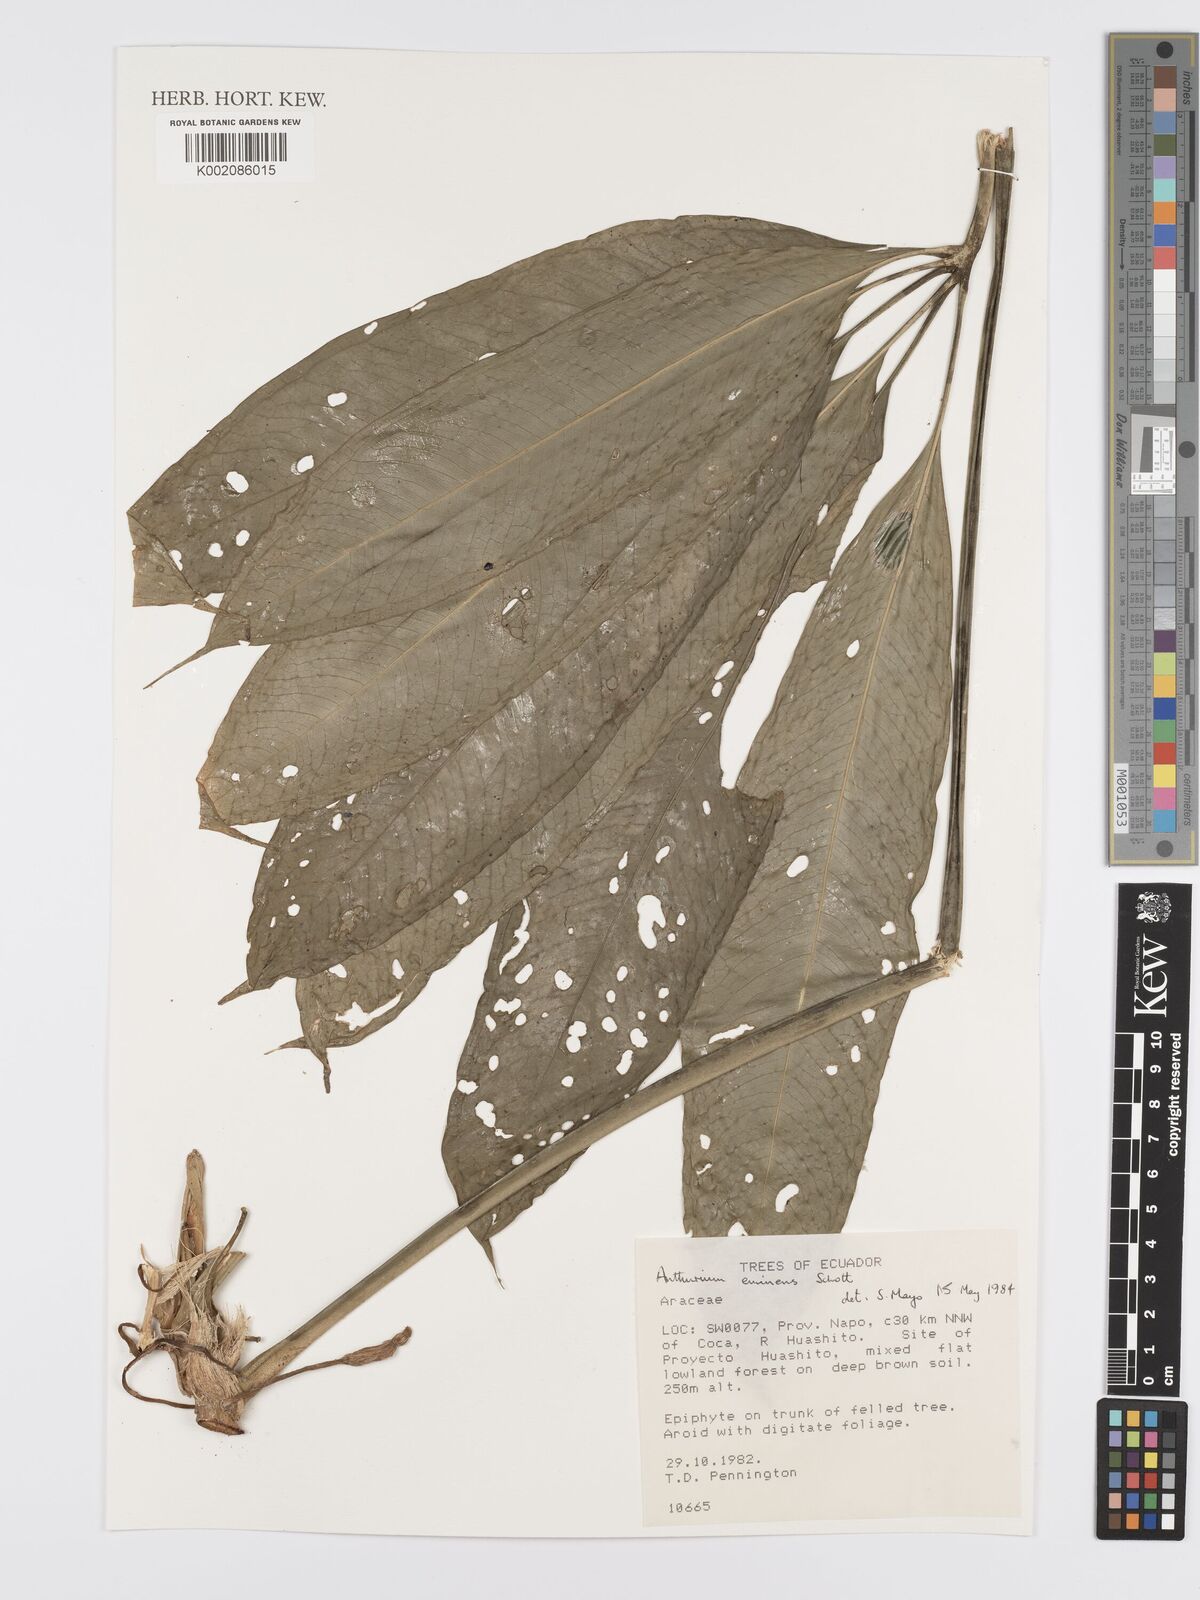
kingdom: Plantae
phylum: Tracheophyta
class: Liliopsida
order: Alismatales
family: Araceae
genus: Anthurium
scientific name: Anthurium eminens
